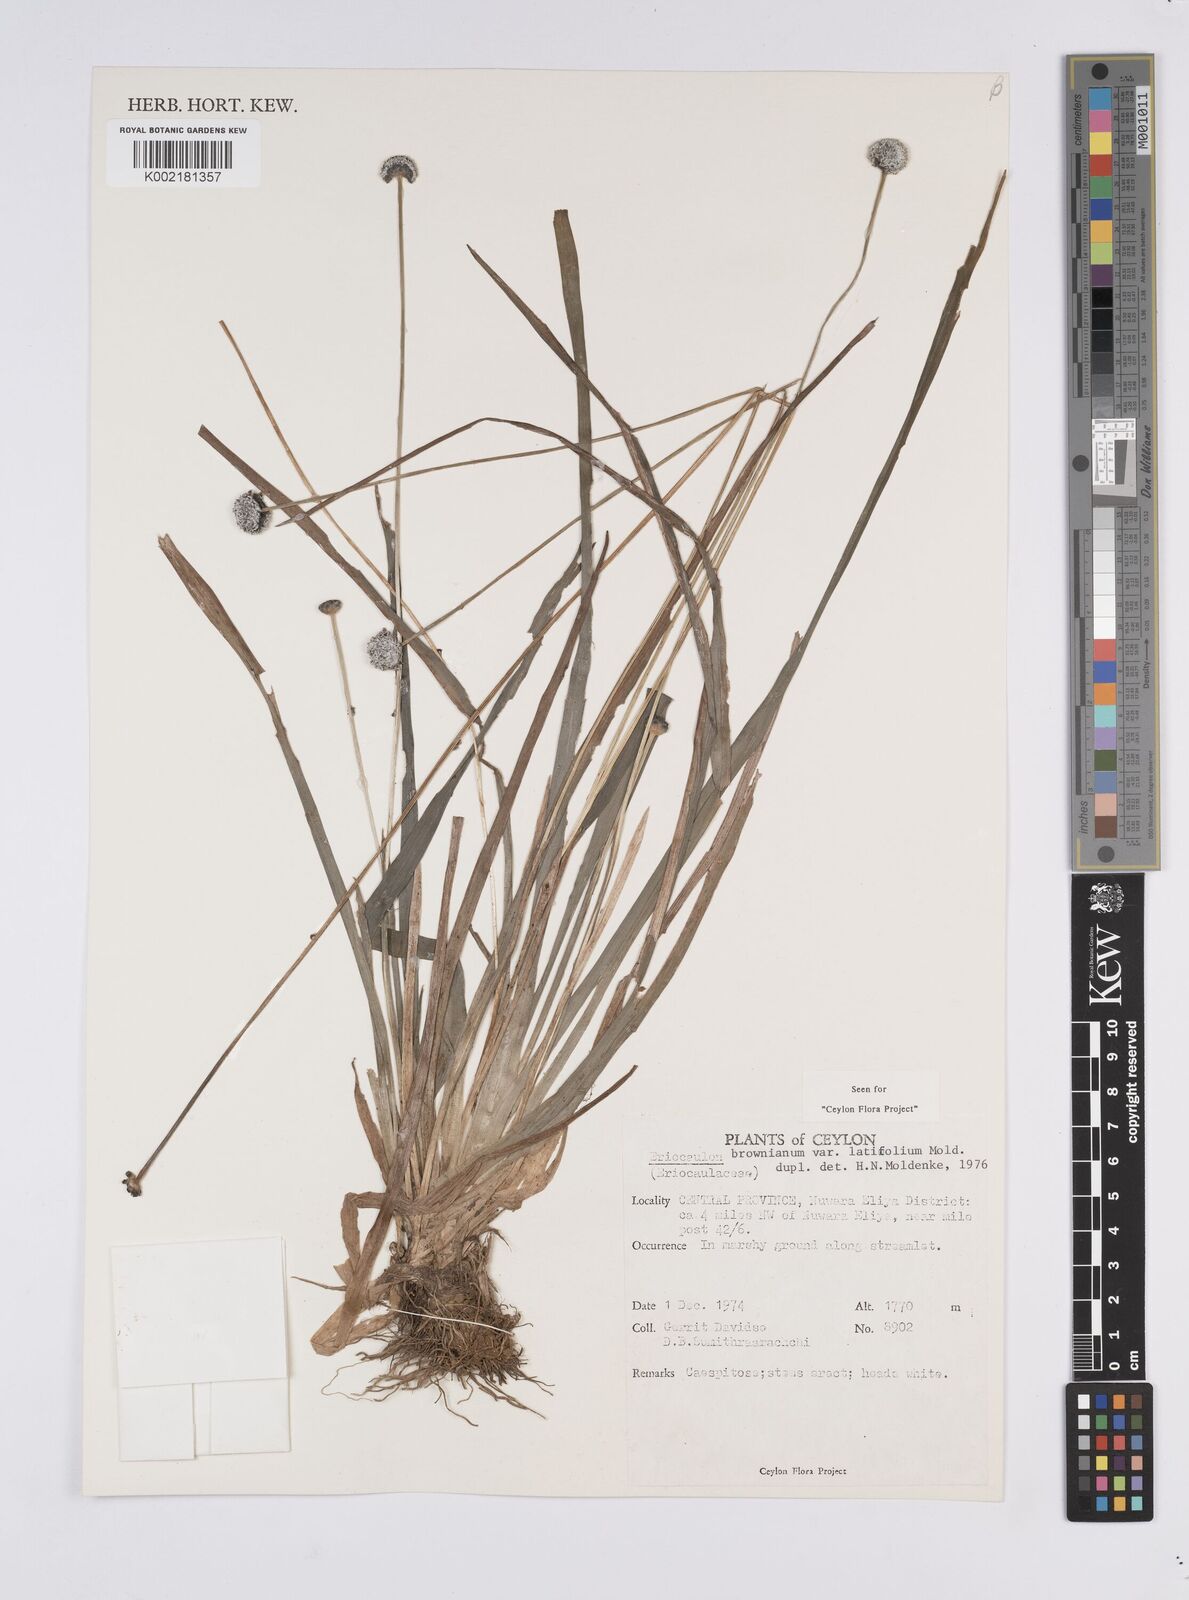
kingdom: Plantae
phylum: Tracheophyta
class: Liliopsida
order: Poales
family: Eriocaulaceae
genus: Eriocaulon
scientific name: Eriocaulon brownianum
